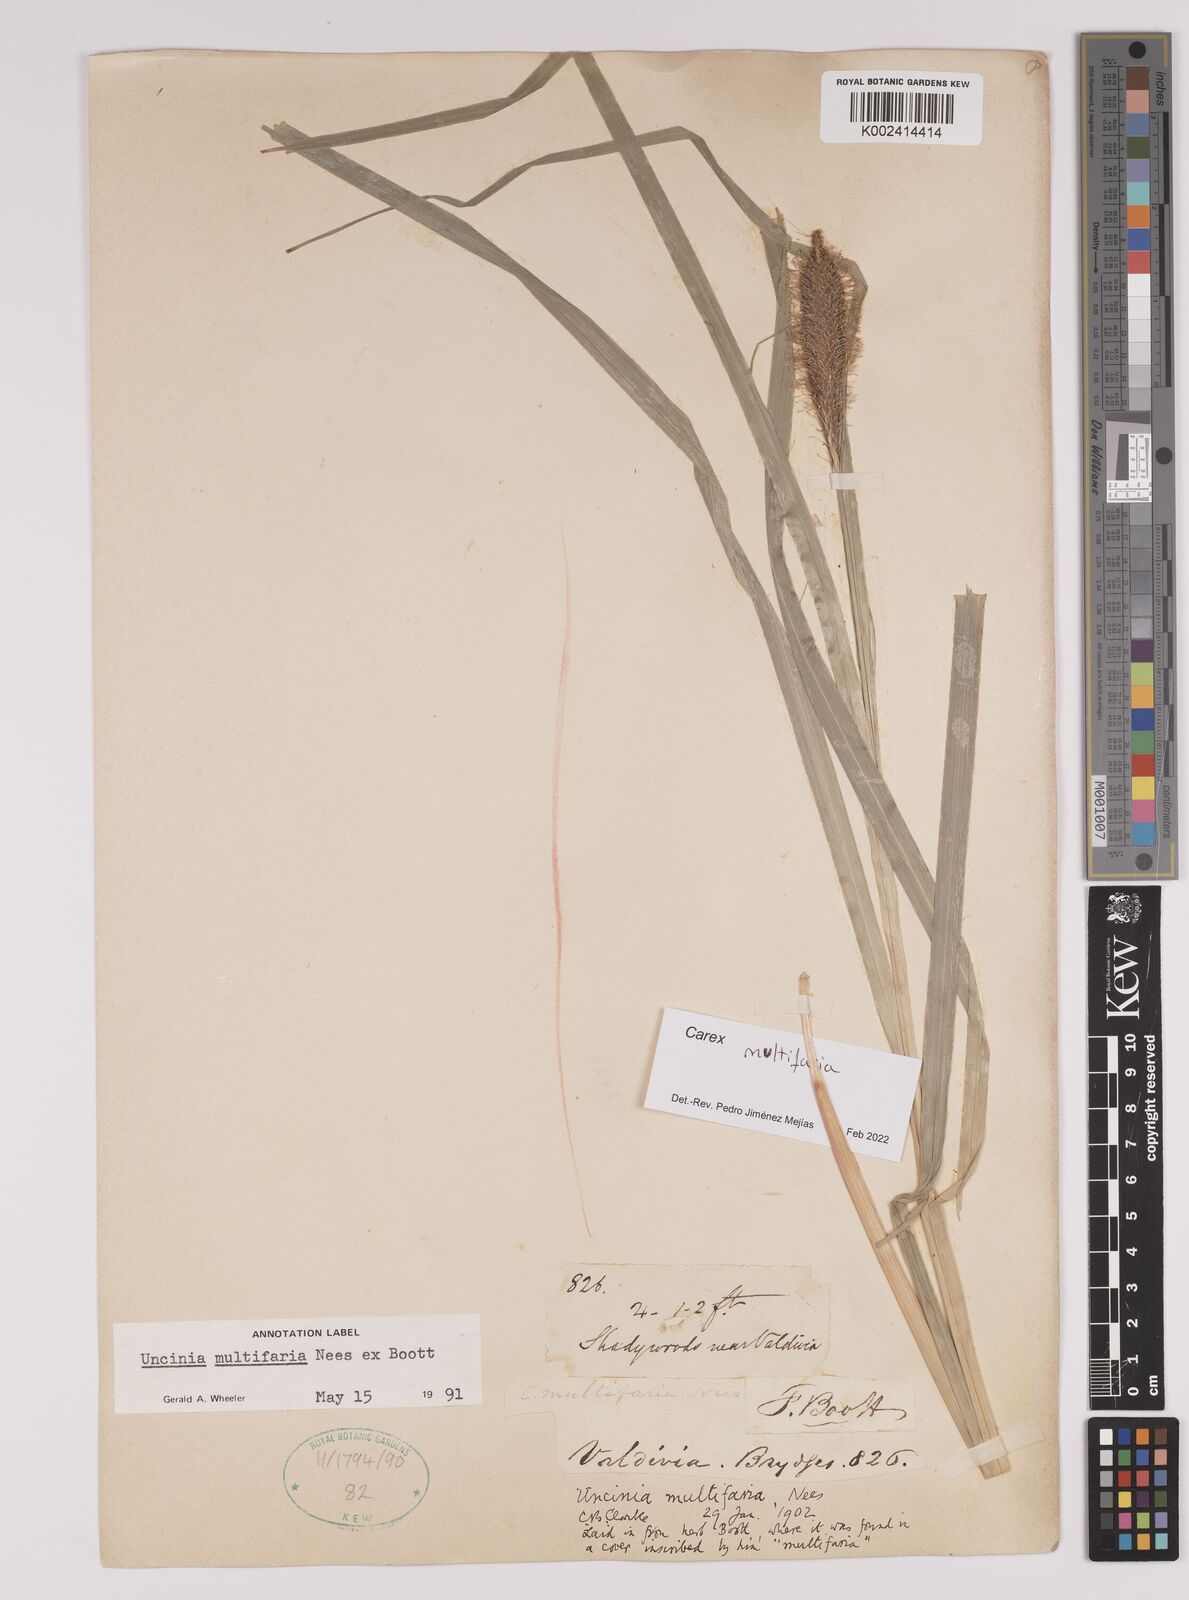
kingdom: Plantae
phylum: Tracheophyta
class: Liliopsida
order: Poales
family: Cyperaceae
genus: Carex
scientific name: Carex multifaria
